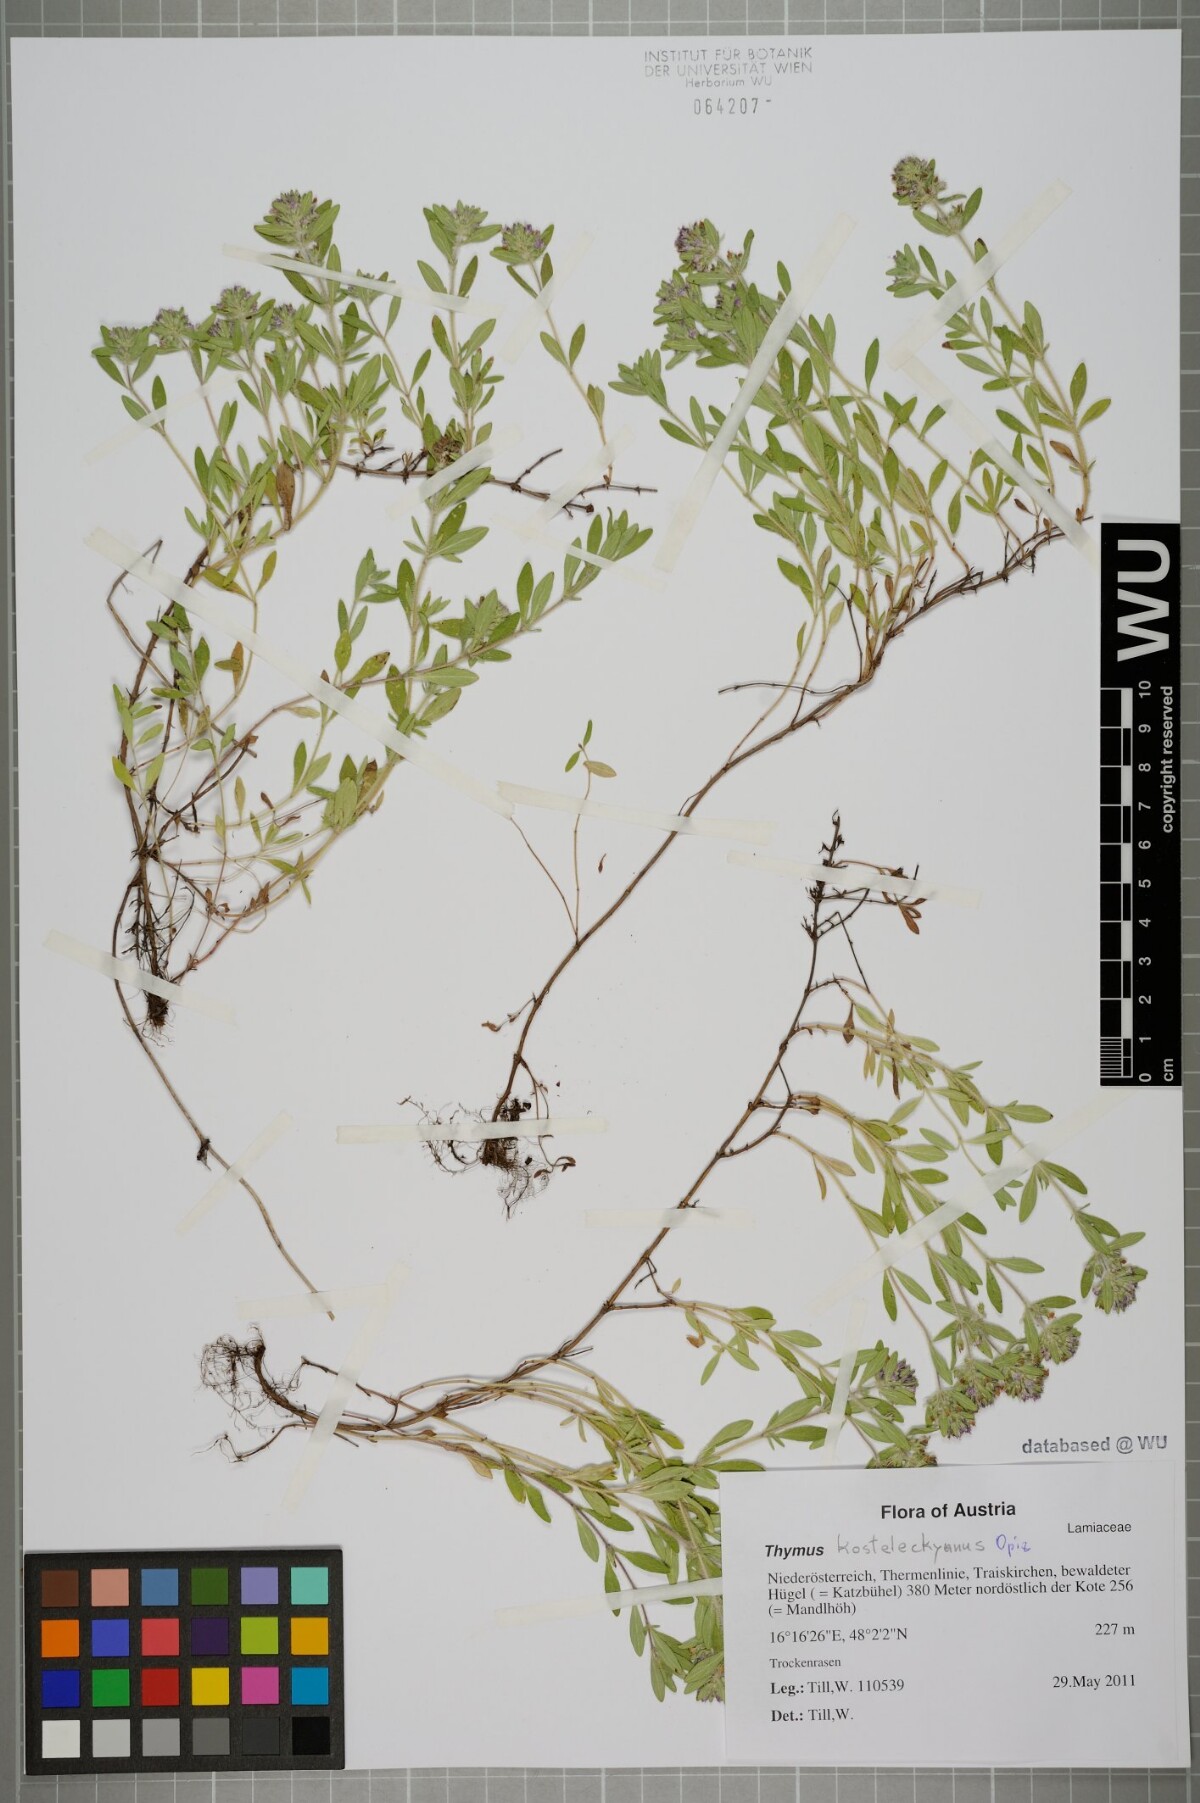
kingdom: Plantae
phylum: Tracheophyta
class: Magnoliopsida
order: Lamiales
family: Lamiaceae
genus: Thymus
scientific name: Thymus pannonicus
